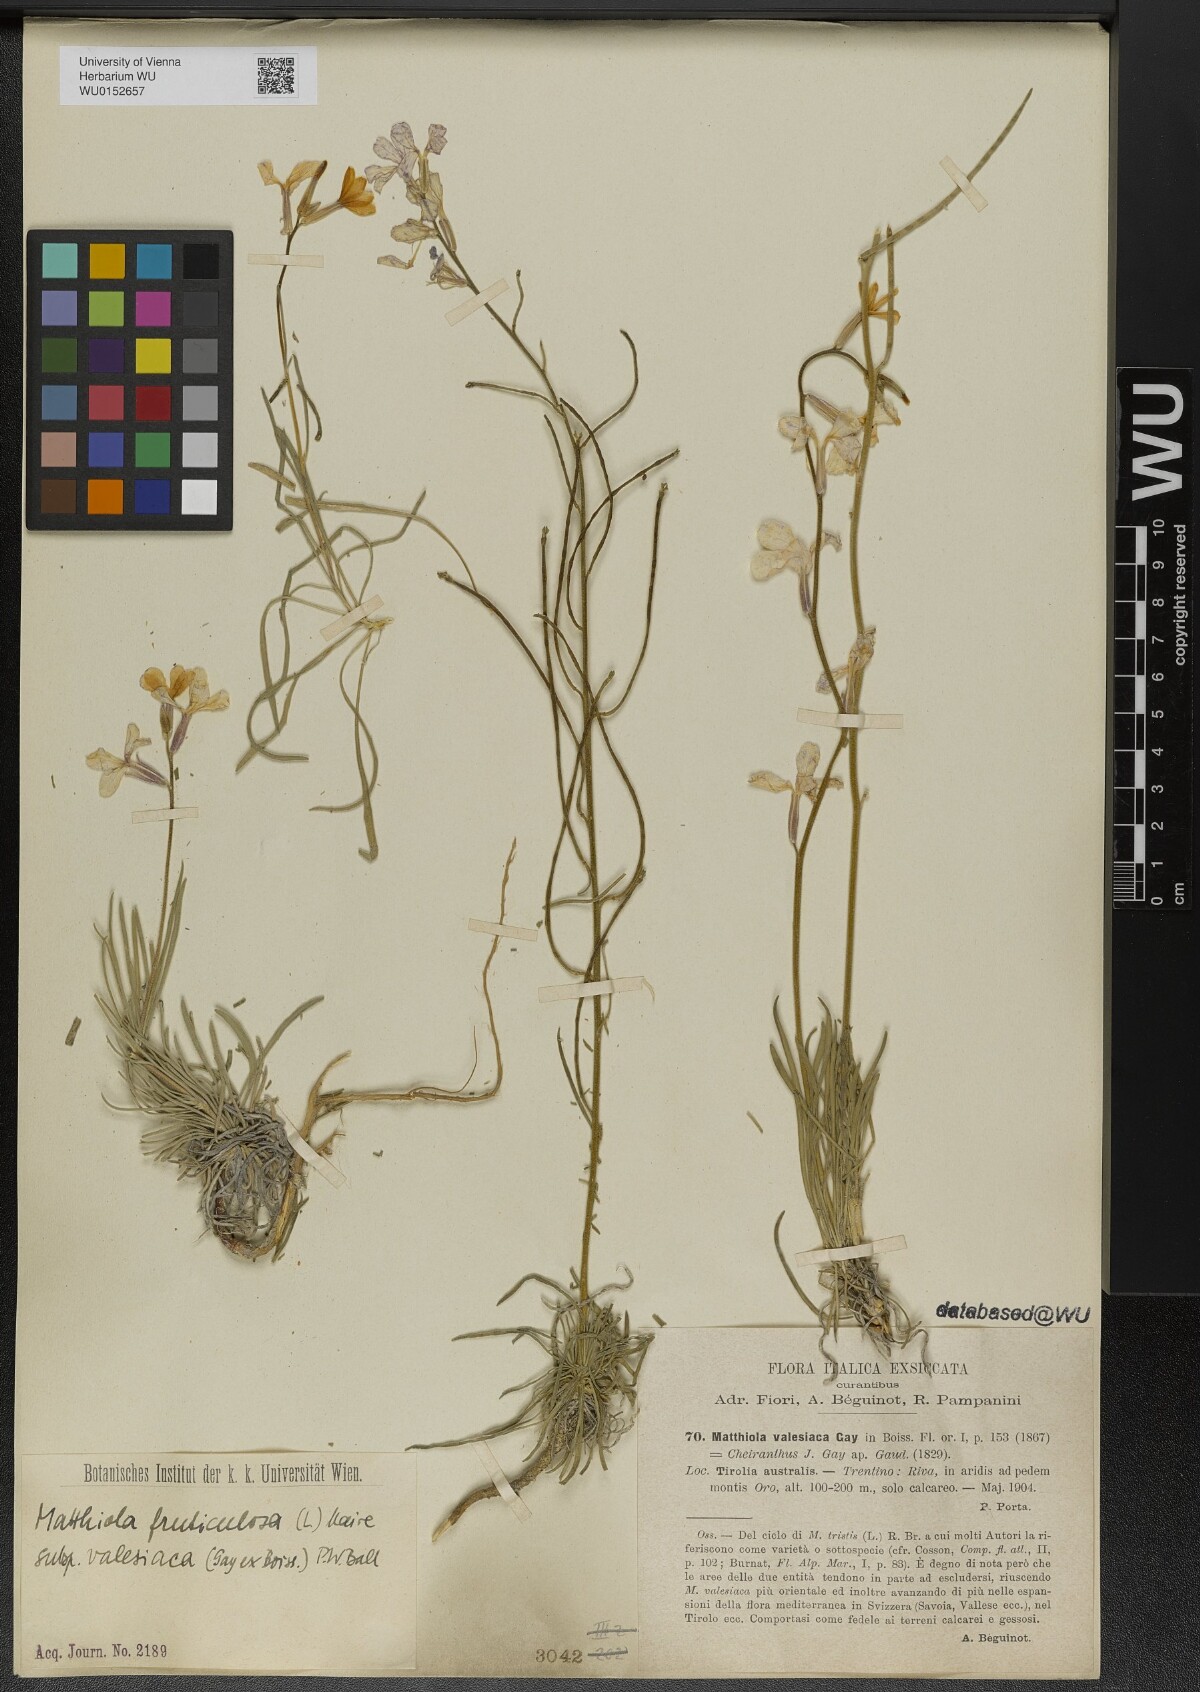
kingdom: Plantae
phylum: Tracheophyta
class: Magnoliopsida
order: Brassicales
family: Brassicaceae
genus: Matthiola
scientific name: Matthiola fruticulosa
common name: Sad stock
